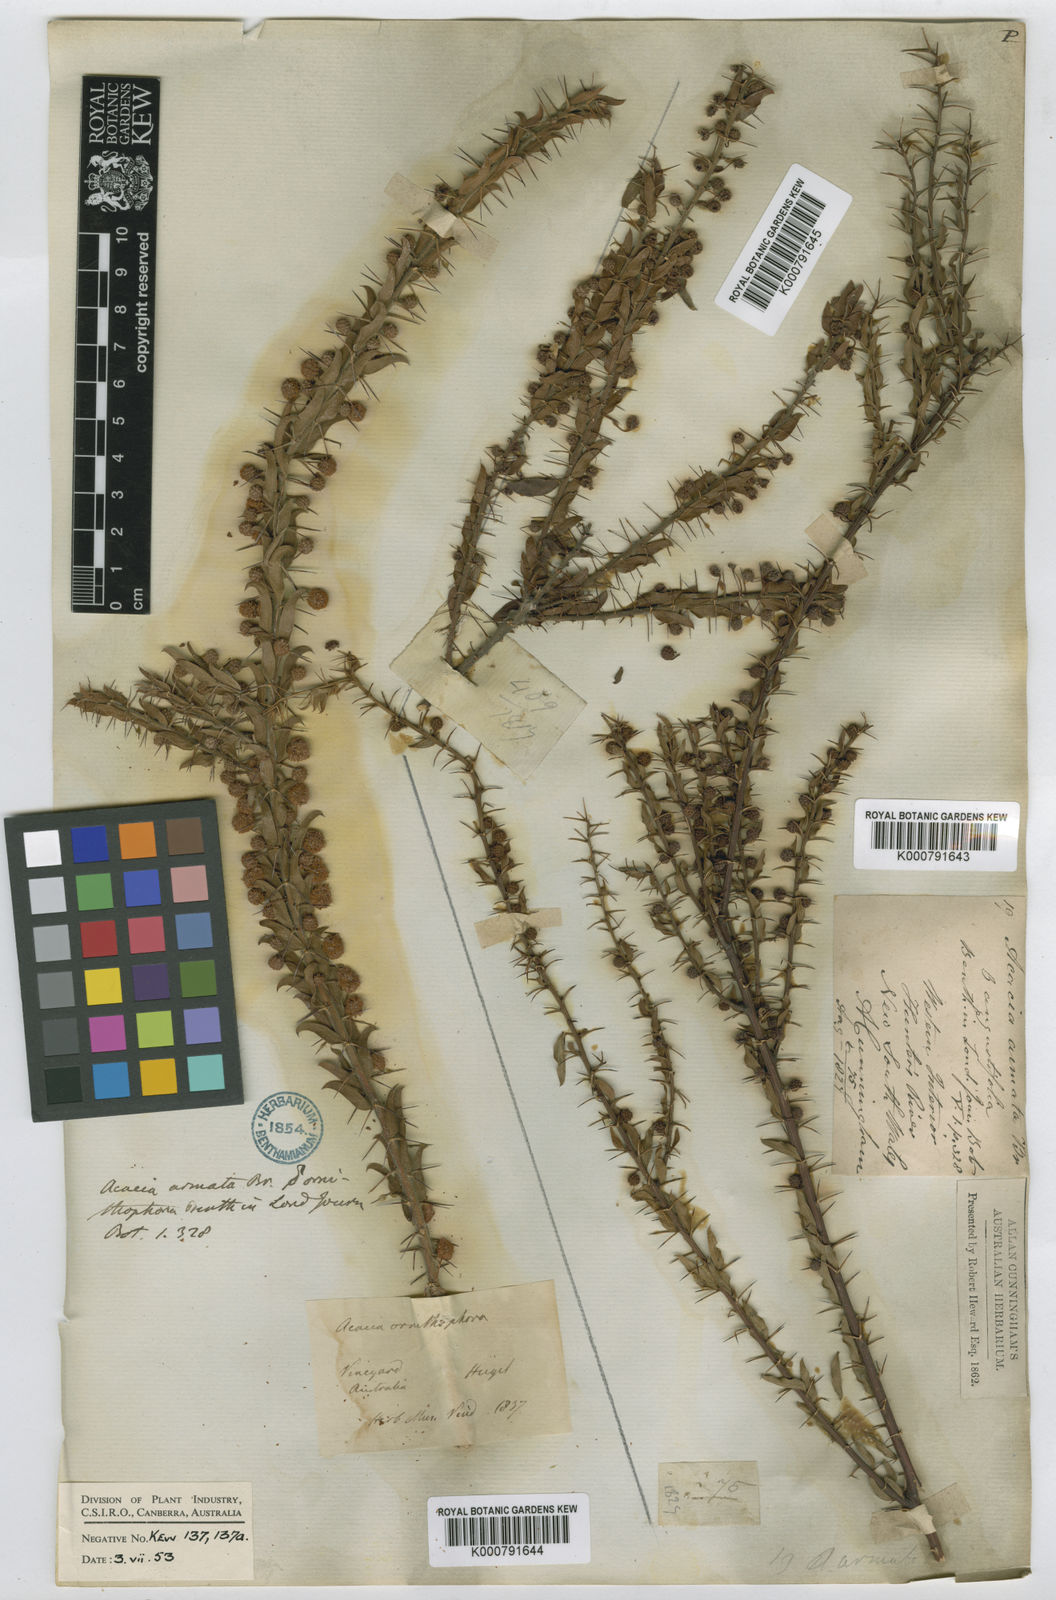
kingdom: Plantae
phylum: Tracheophyta
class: Magnoliopsida
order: Fabales
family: Fabaceae
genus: Acacia
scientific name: Acacia
